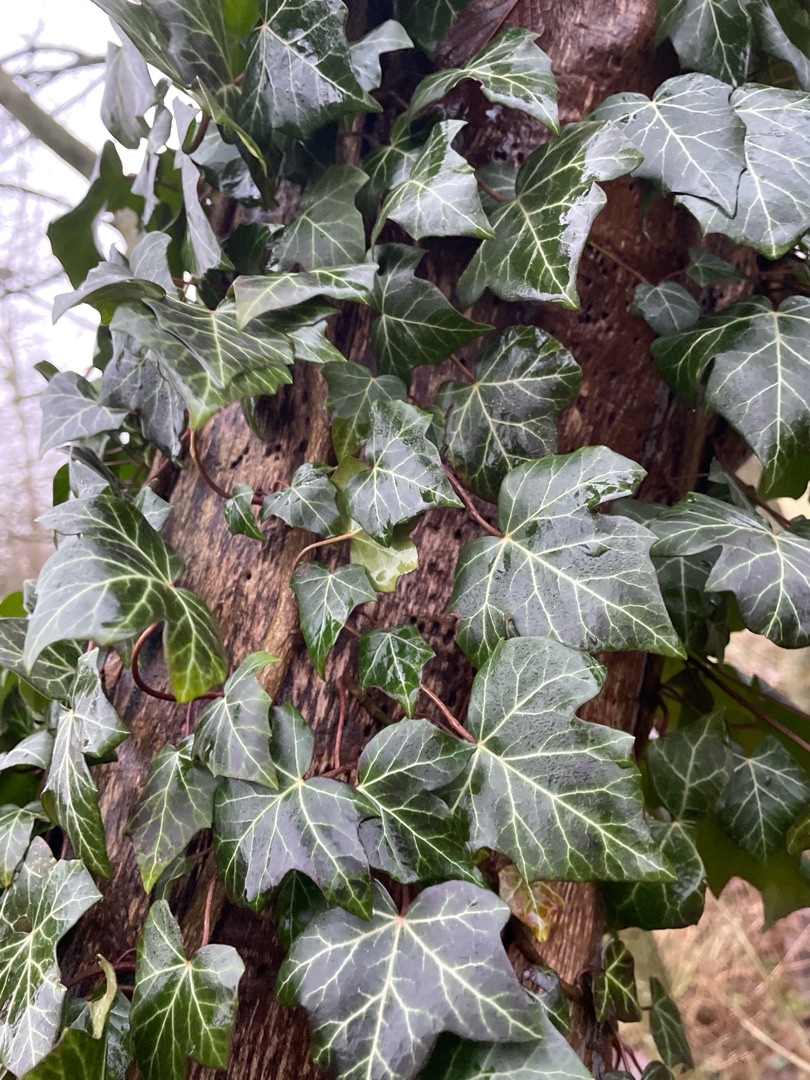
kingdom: Plantae
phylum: Tracheophyta
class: Magnoliopsida
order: Apiales
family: Araliaceae
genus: Hedera
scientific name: Hedera helix
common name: Vedbend
